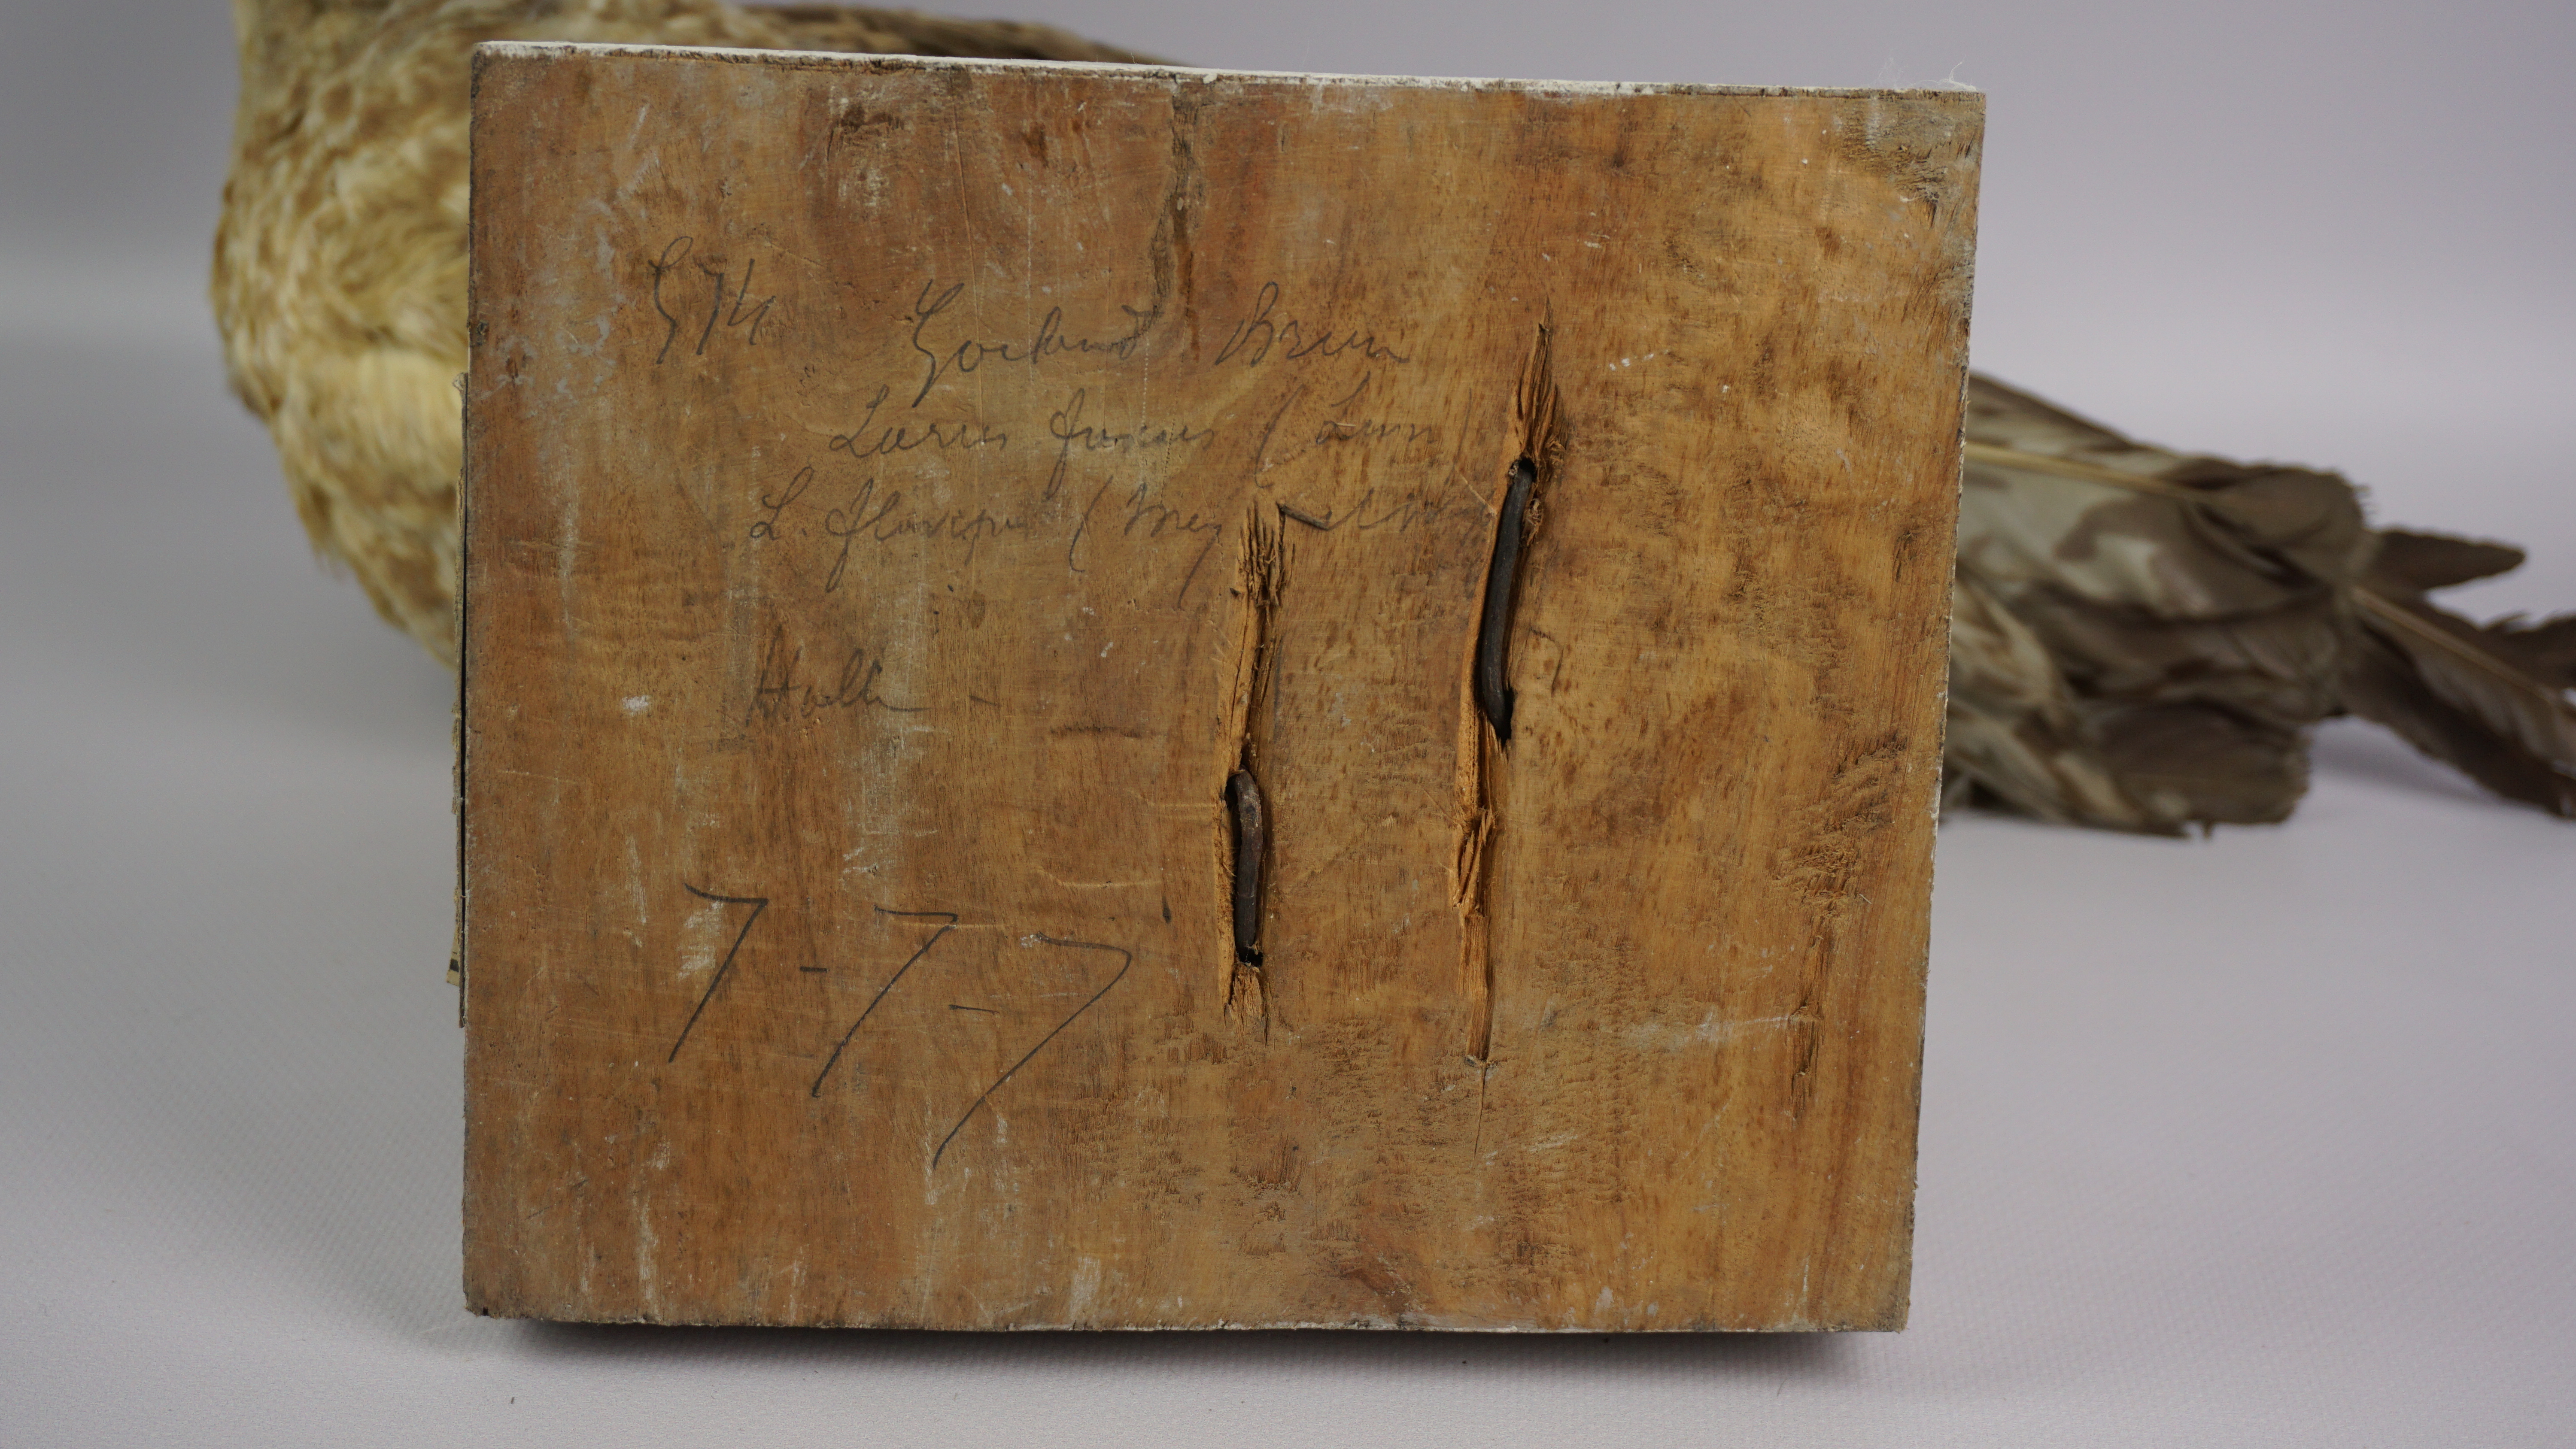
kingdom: Animalia
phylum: Chordata
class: Aves
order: Charadriiformes
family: Laridae
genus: Larus
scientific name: Larus fuscus
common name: Lesser black-backed gull
